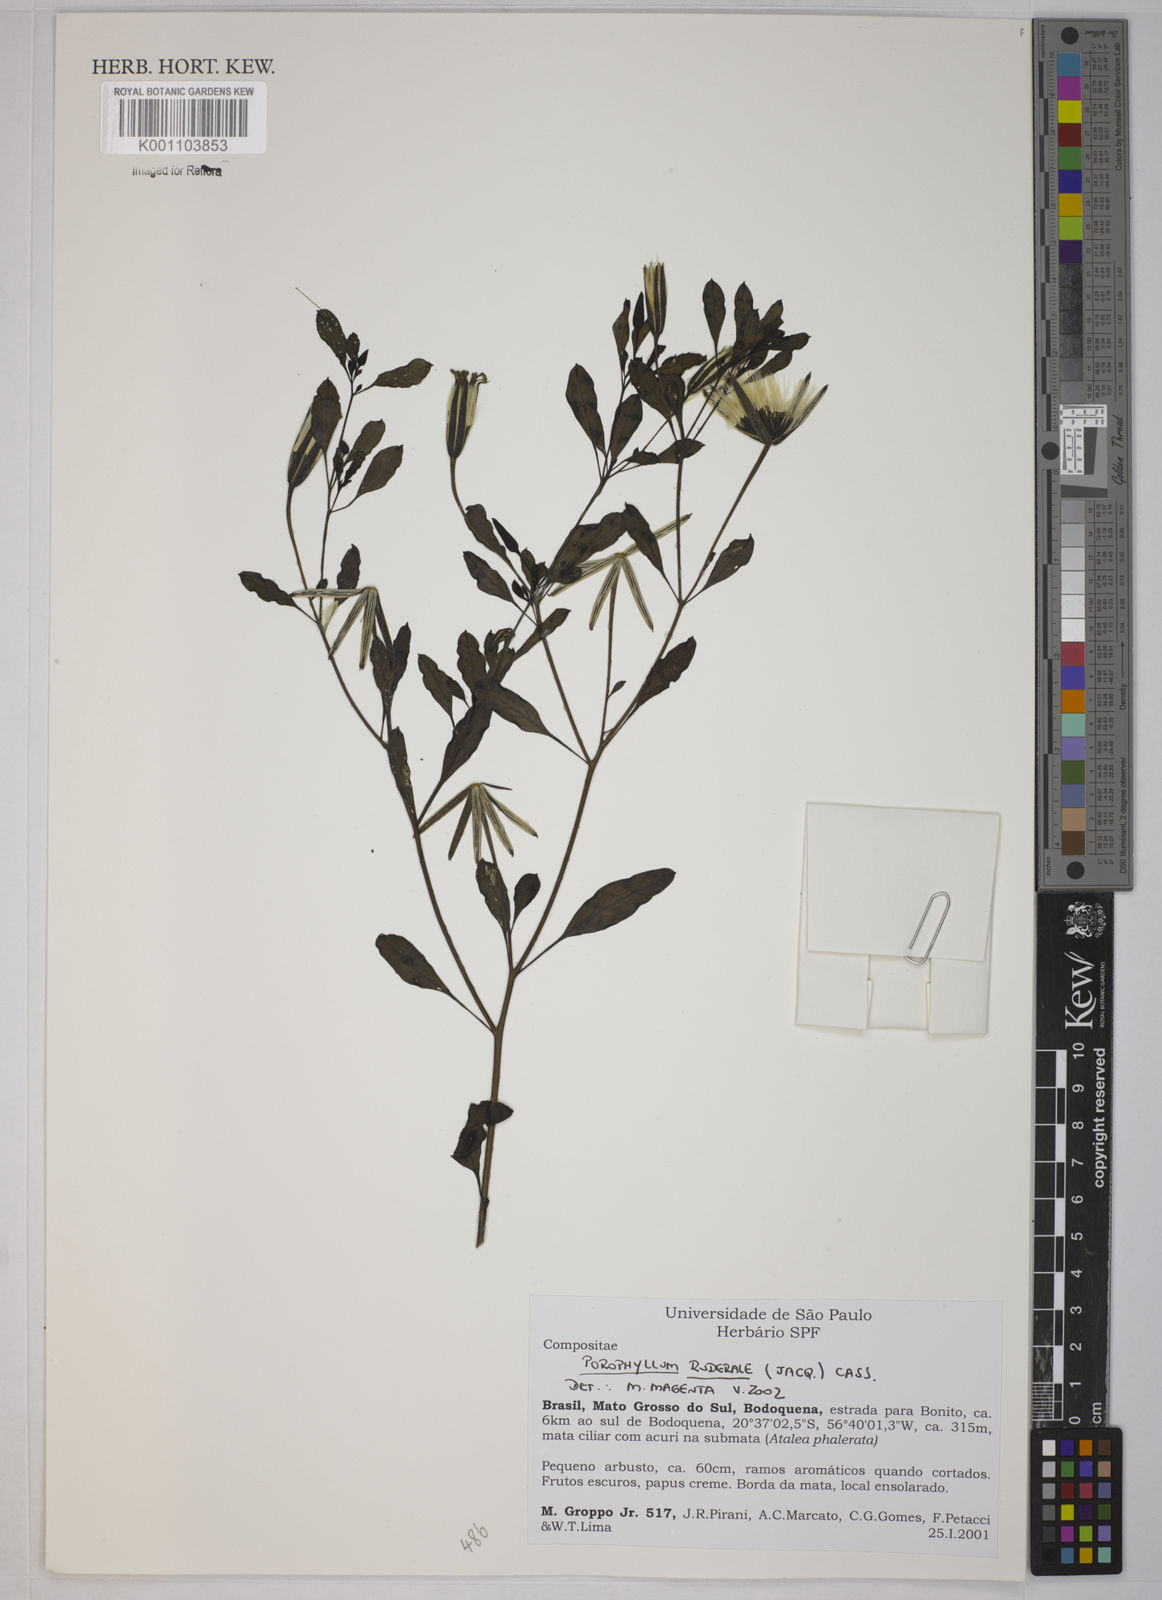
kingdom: Plantae
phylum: Tracheophyta
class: Magnoliopsida
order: Asterales
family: Asteraceae
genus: Porophyllum
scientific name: Porophyllum ruderale
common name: Yerba porosa
